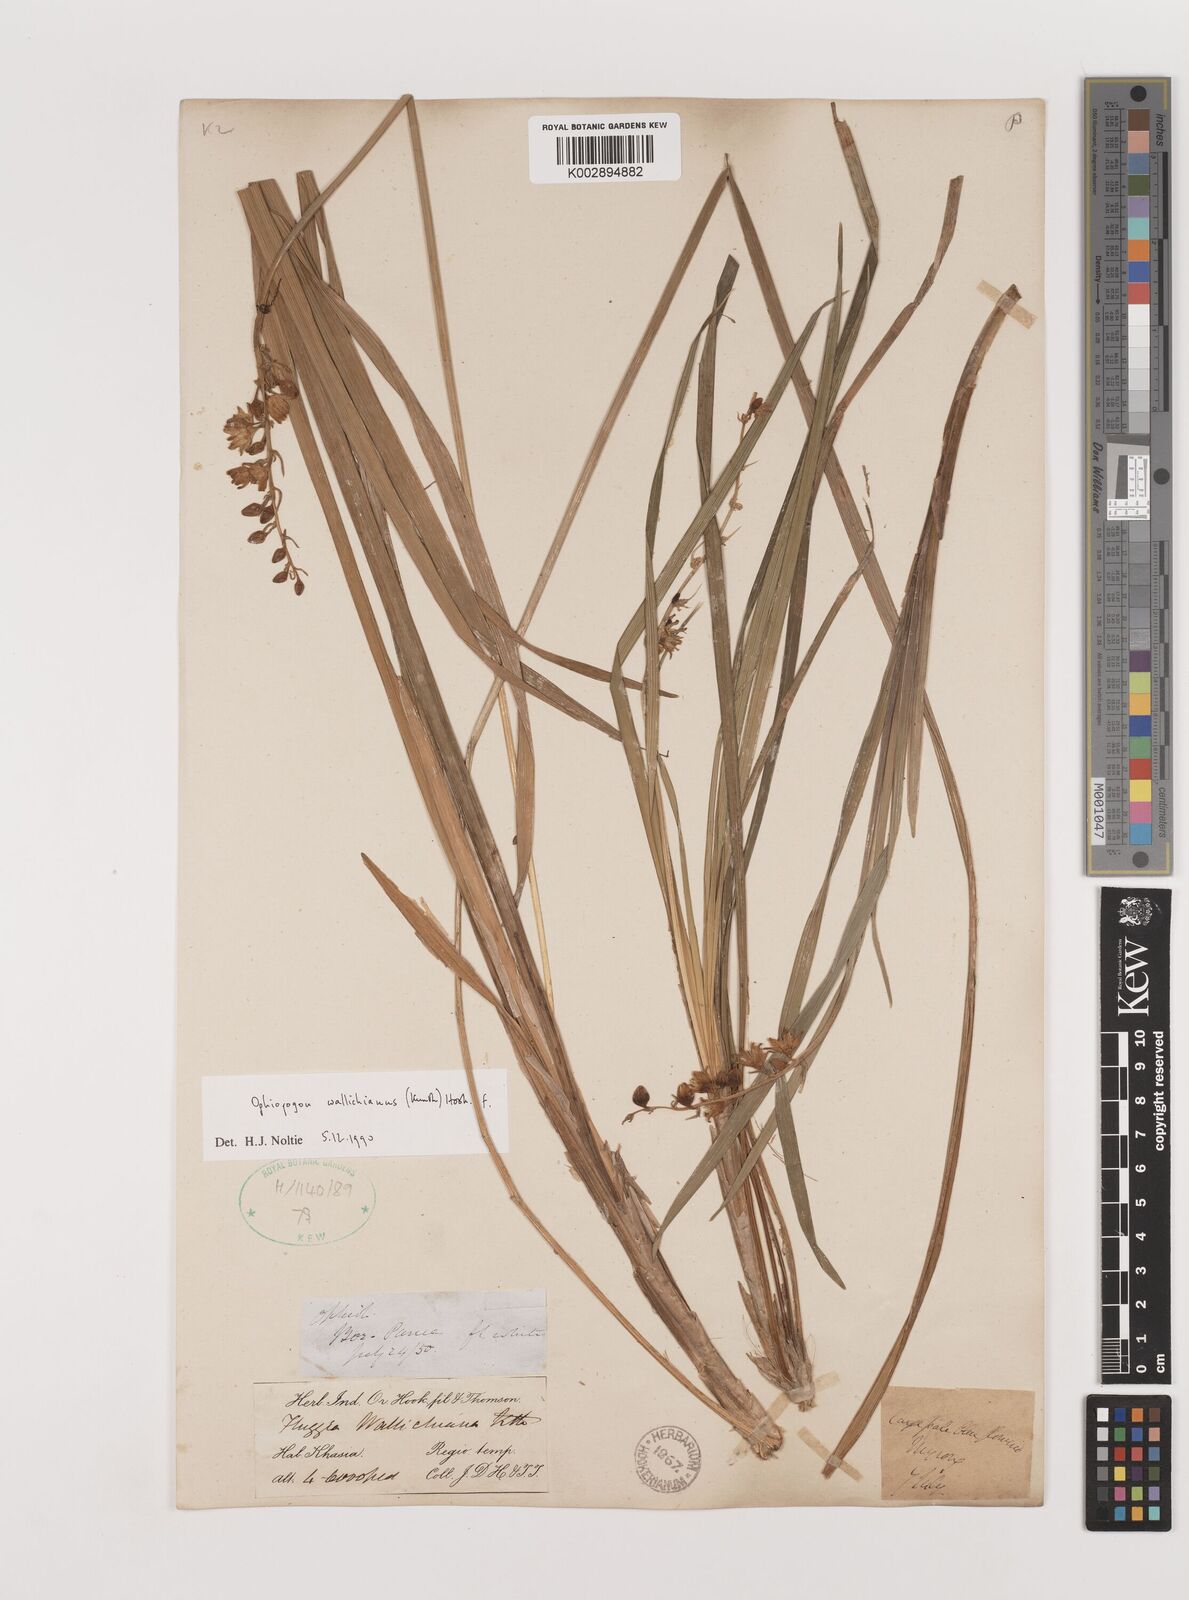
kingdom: Plantae
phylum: Tracheophyta
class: Liliopsida
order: Asparagales
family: Asparagaceae
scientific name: Asparagaceae
